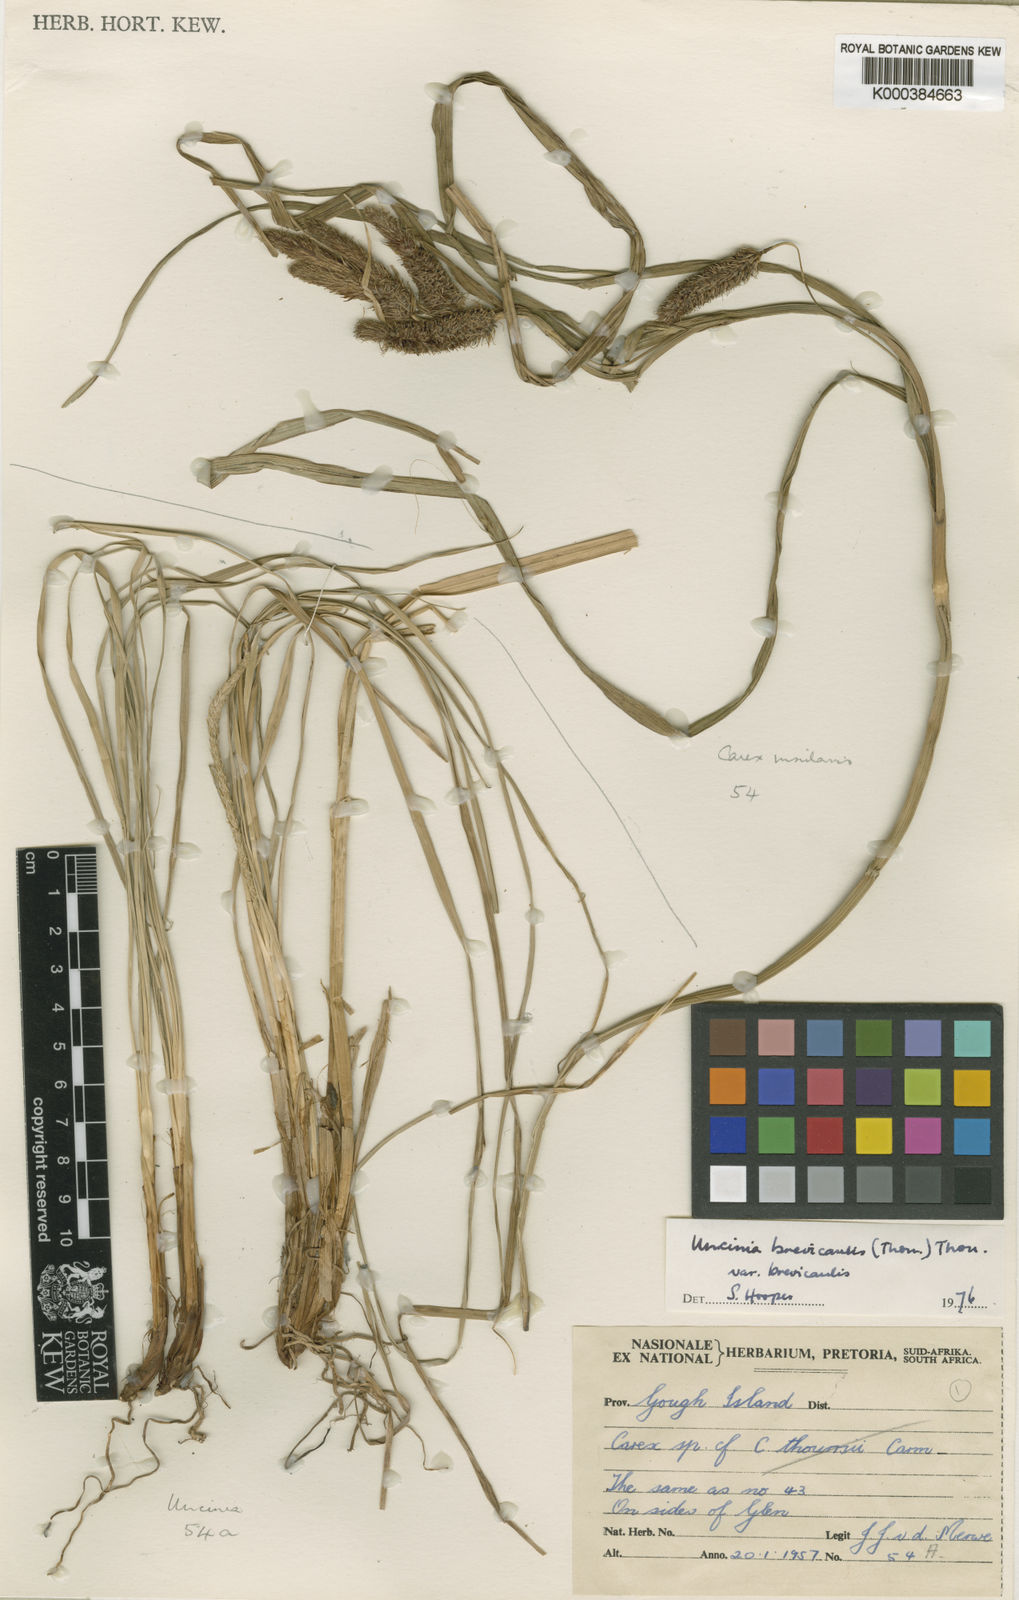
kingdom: Plantae
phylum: Tracheophyta
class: Liliopsida
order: Poales
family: Cyperaceae
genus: Carex
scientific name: Carex insularis
